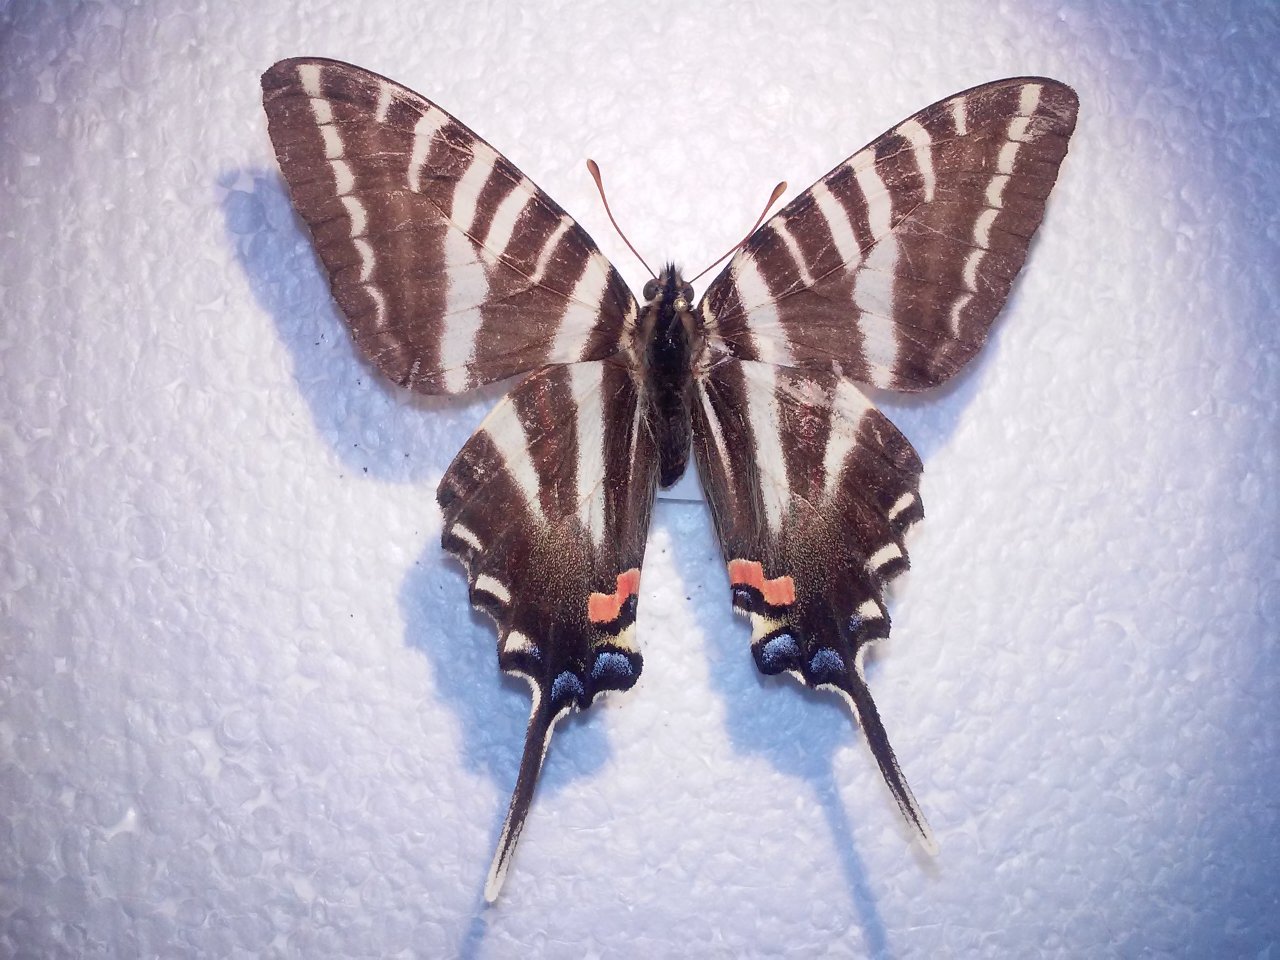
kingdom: Animalia
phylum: Arthropoda
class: Insecta
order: Lepidoptera
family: Papilionidae
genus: Protographium
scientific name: Protographium marcellus
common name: Zebra Swallowtail
